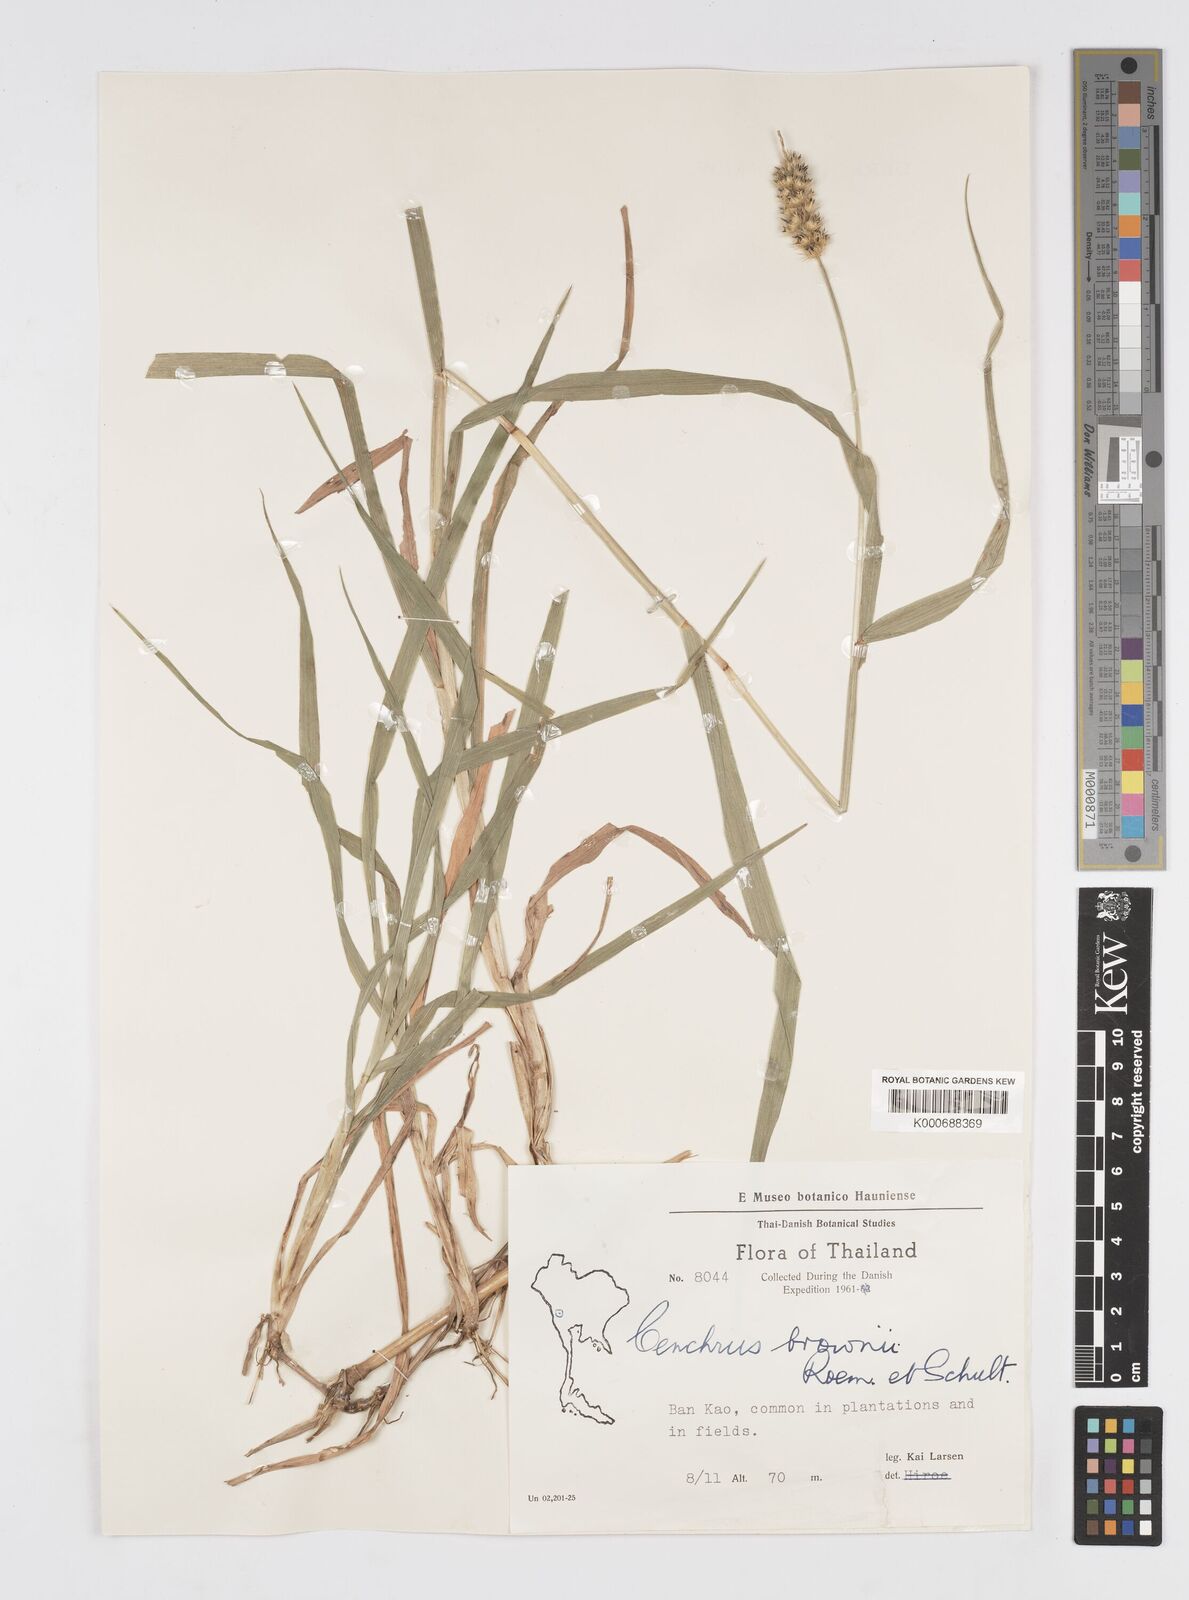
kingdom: Plantae
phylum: Tracheophyta
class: Liliopsida
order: Poales
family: Poaceae
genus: Cenchrus
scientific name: Cenchrus brownii
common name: Slim-bristle sandbur
